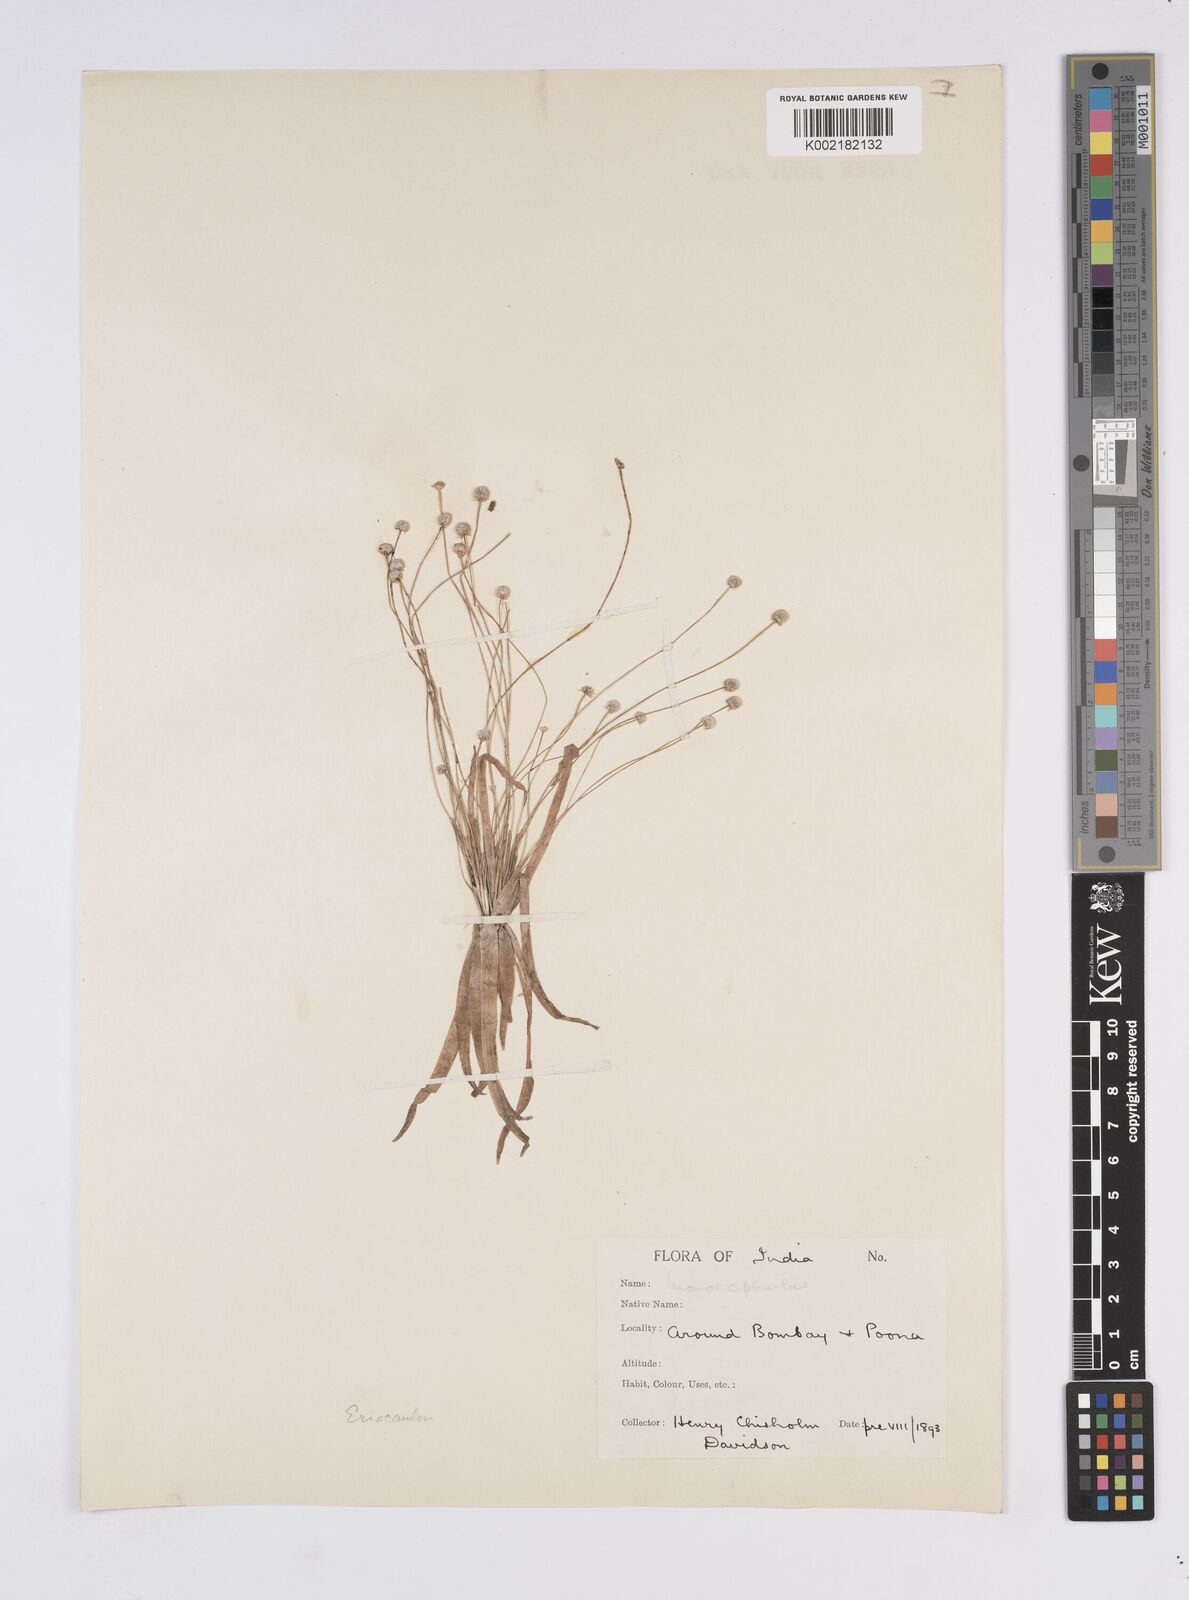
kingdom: Plantae
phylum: Tracheophyta
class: Liliopsida
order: Poales
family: Eriocaulaceae
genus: Eriocaulon
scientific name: Eriocaulon
